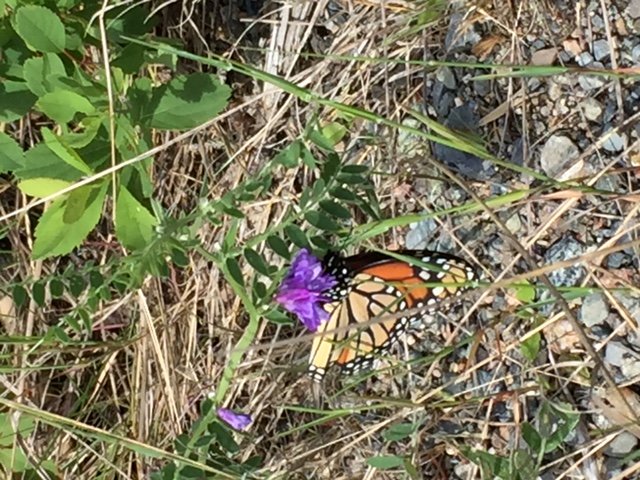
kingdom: Animalia
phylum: Arthropoda
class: Insecta
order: Lepidoptera
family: Nymphalidae
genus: Danaus
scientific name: Danaus plexippus
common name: Monarch
